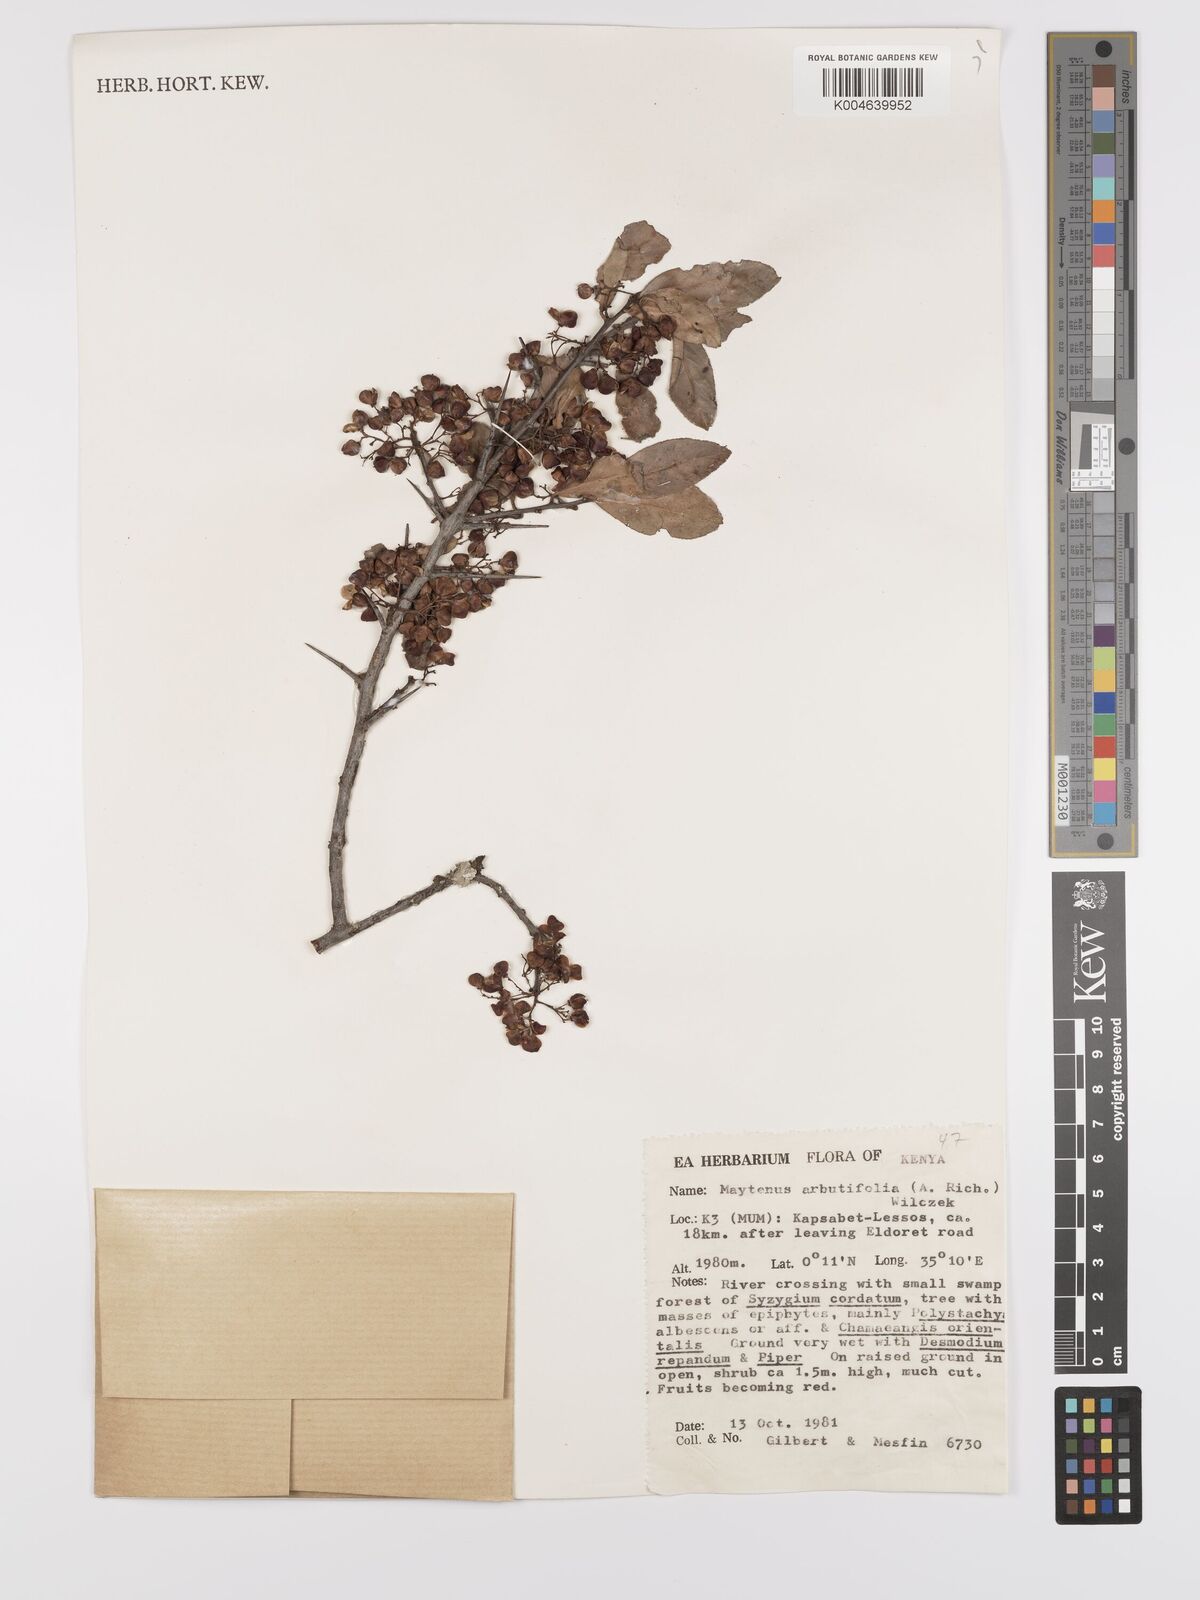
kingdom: Plantae
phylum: Tracheophyta
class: Magnoliopsida
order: Celastrales
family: Celastraceae
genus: Gymnosporia
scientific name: Gymnosporia arbutifolia
